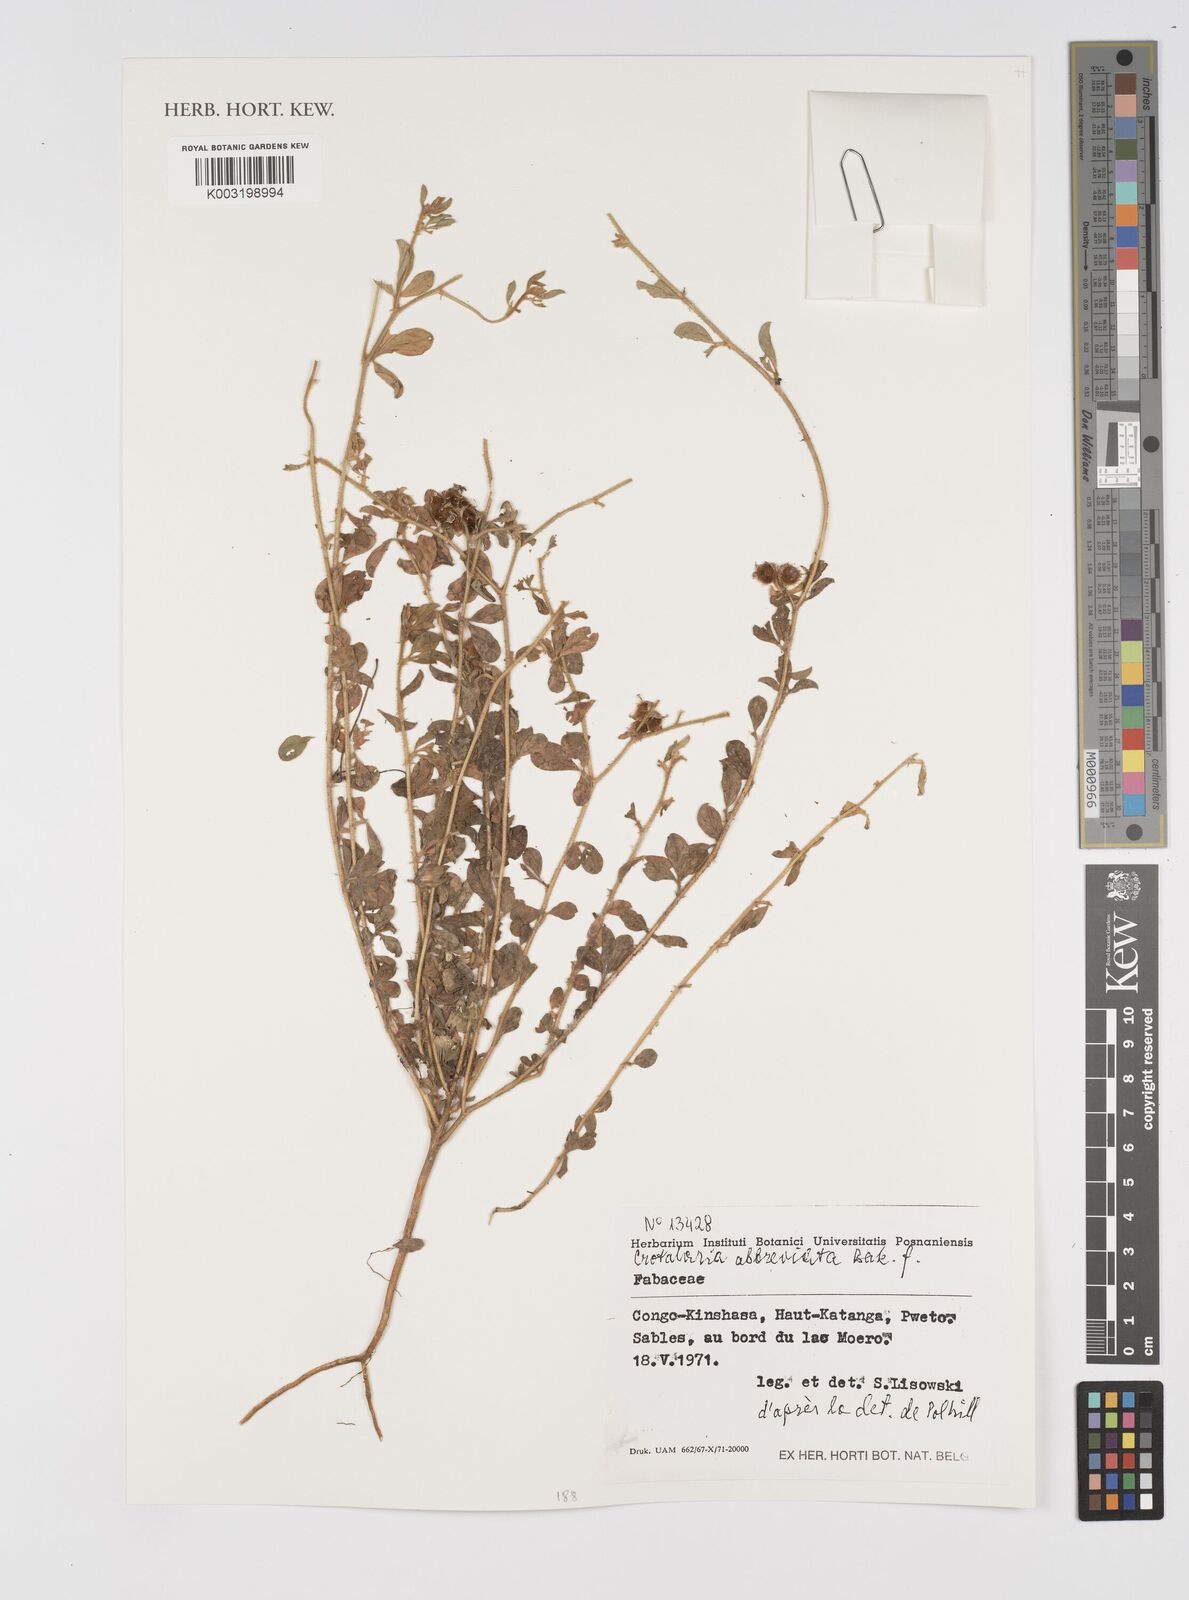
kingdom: Plantae
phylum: Tracheophyta
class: Magnoliopsida
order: Fabales
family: Fabaceae
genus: Crotalaria
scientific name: Crotalaria abbreviata
